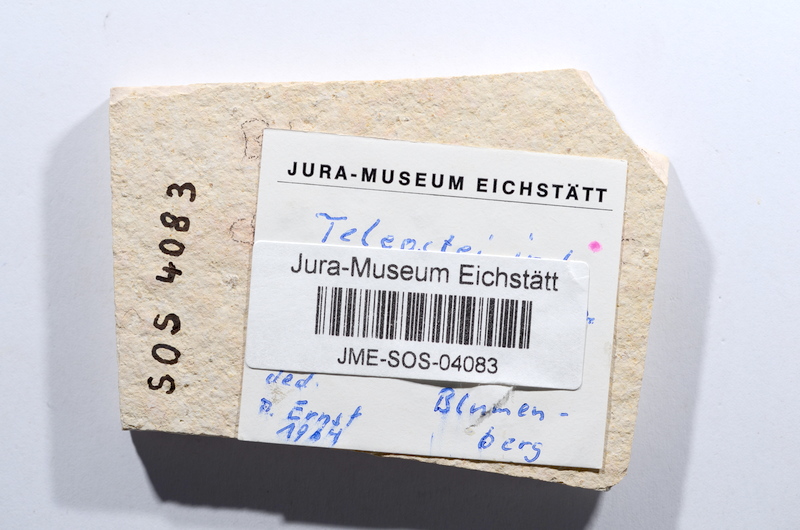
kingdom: Animalia
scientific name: Animalia
